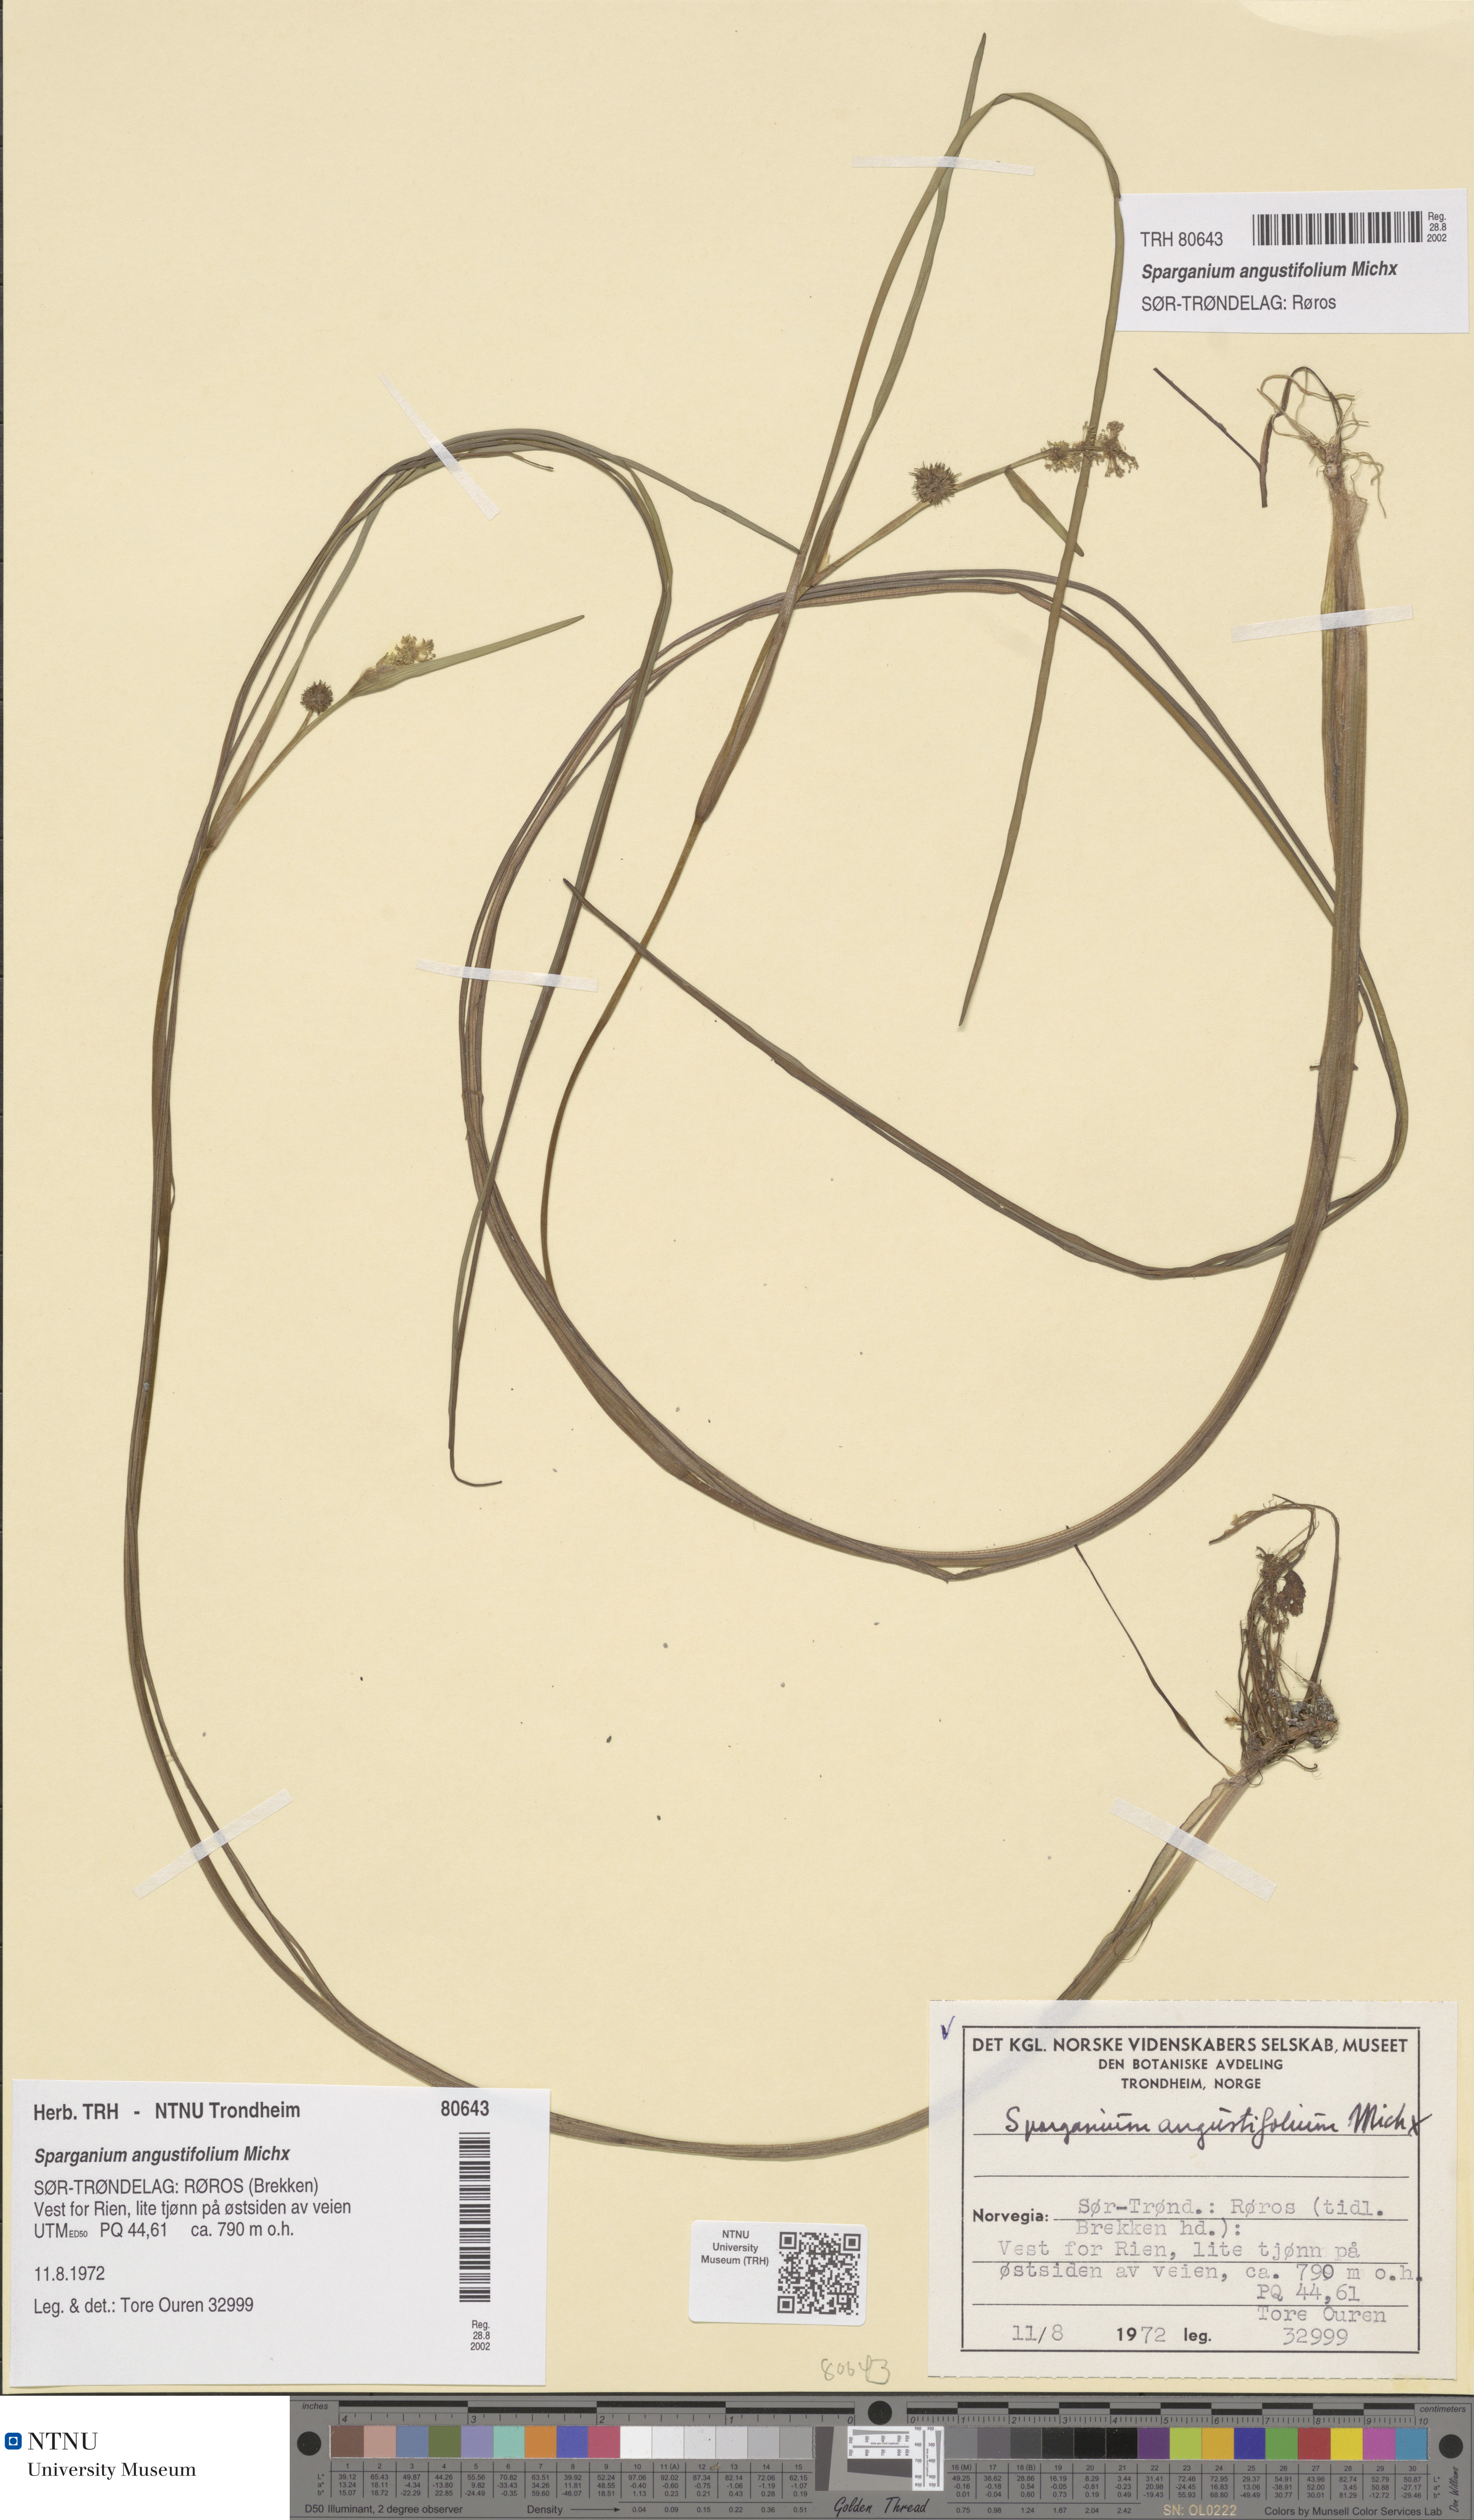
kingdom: Plantae
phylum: Tracheophyta
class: Liliopsida
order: Poales
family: Typhaceae
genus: Sparganium
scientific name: Sparganium angustifolium
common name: Floating bur-reed
